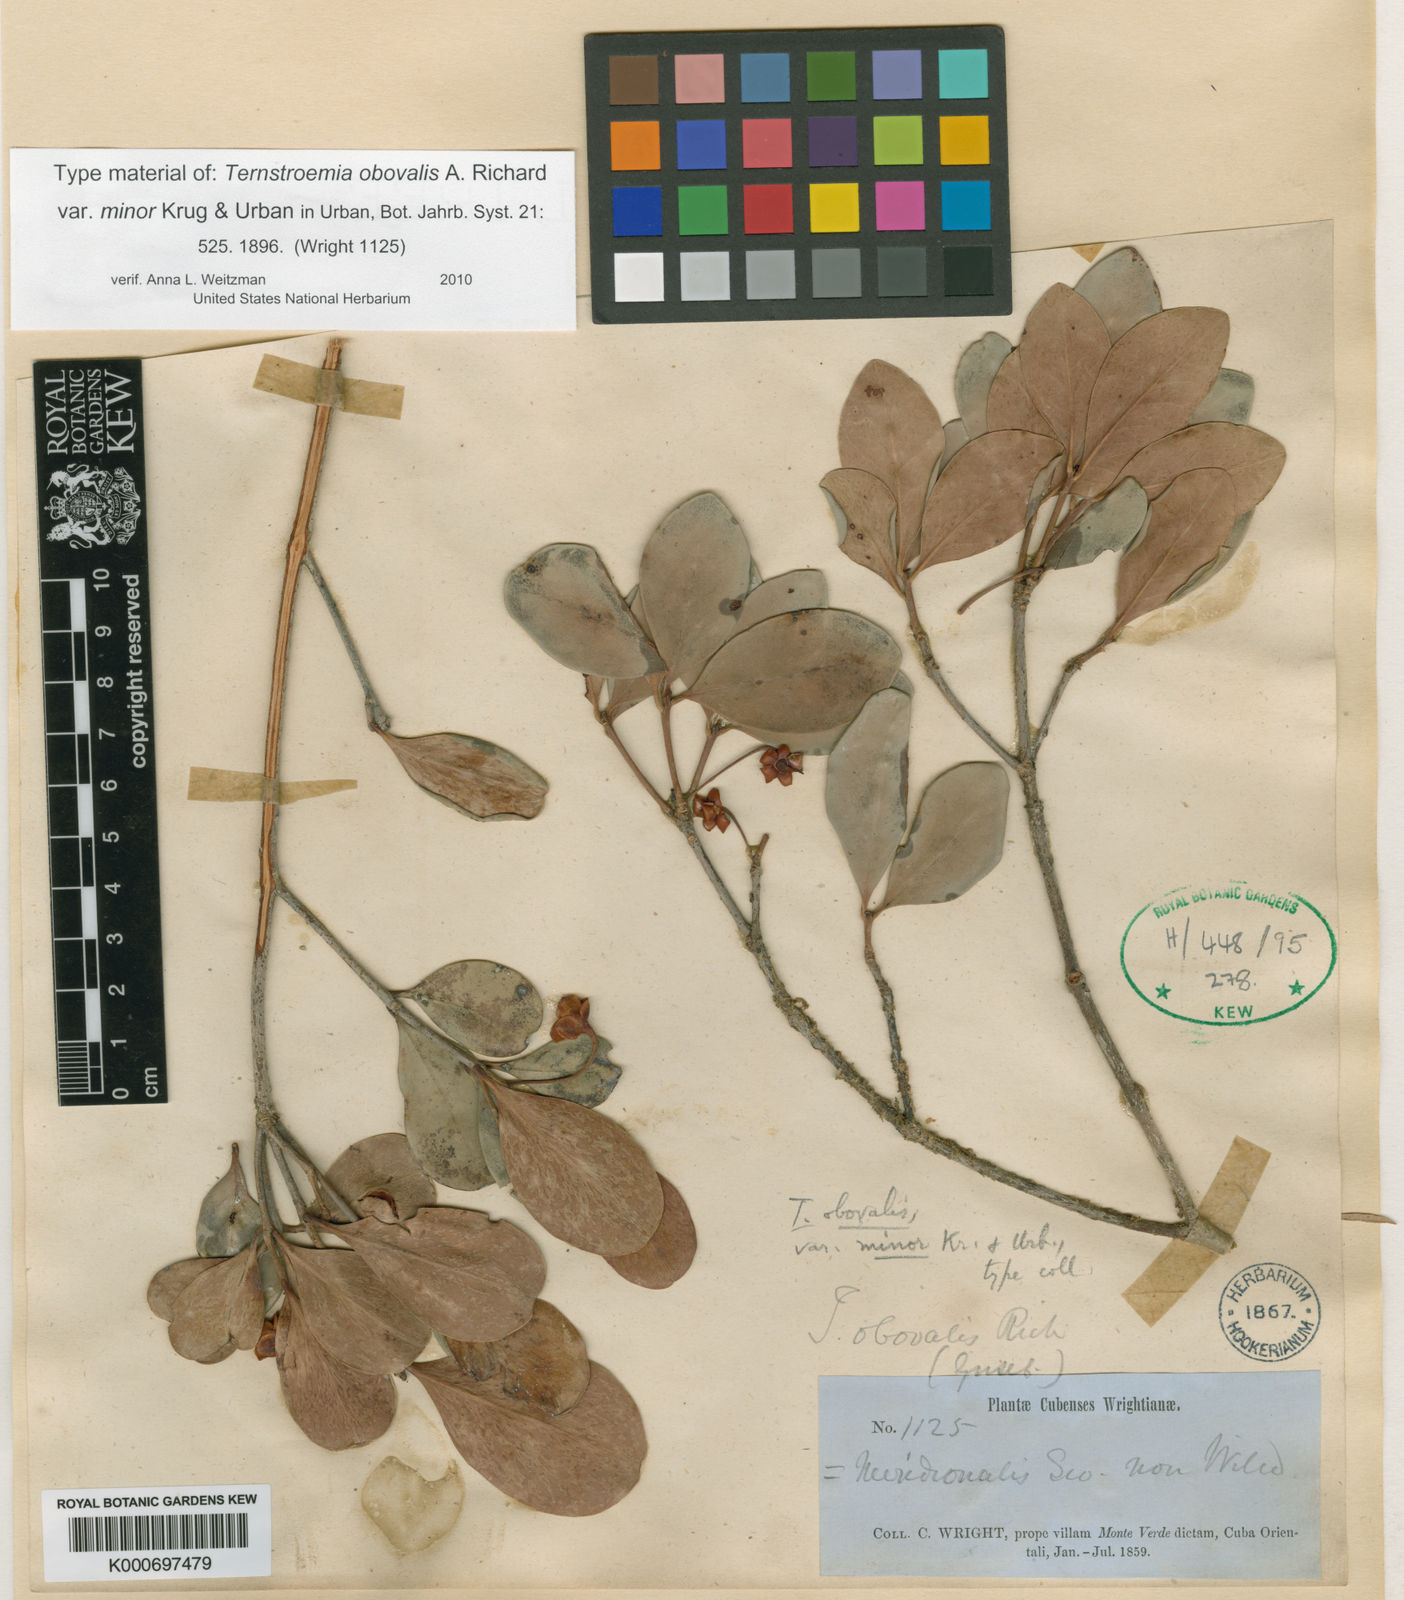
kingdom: Plantae
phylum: Tracheophyta
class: Magnoliopsida
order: Ericales
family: Pentaphylacaceae
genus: Ternstroemia
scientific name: Ternstroemia peduncularis
